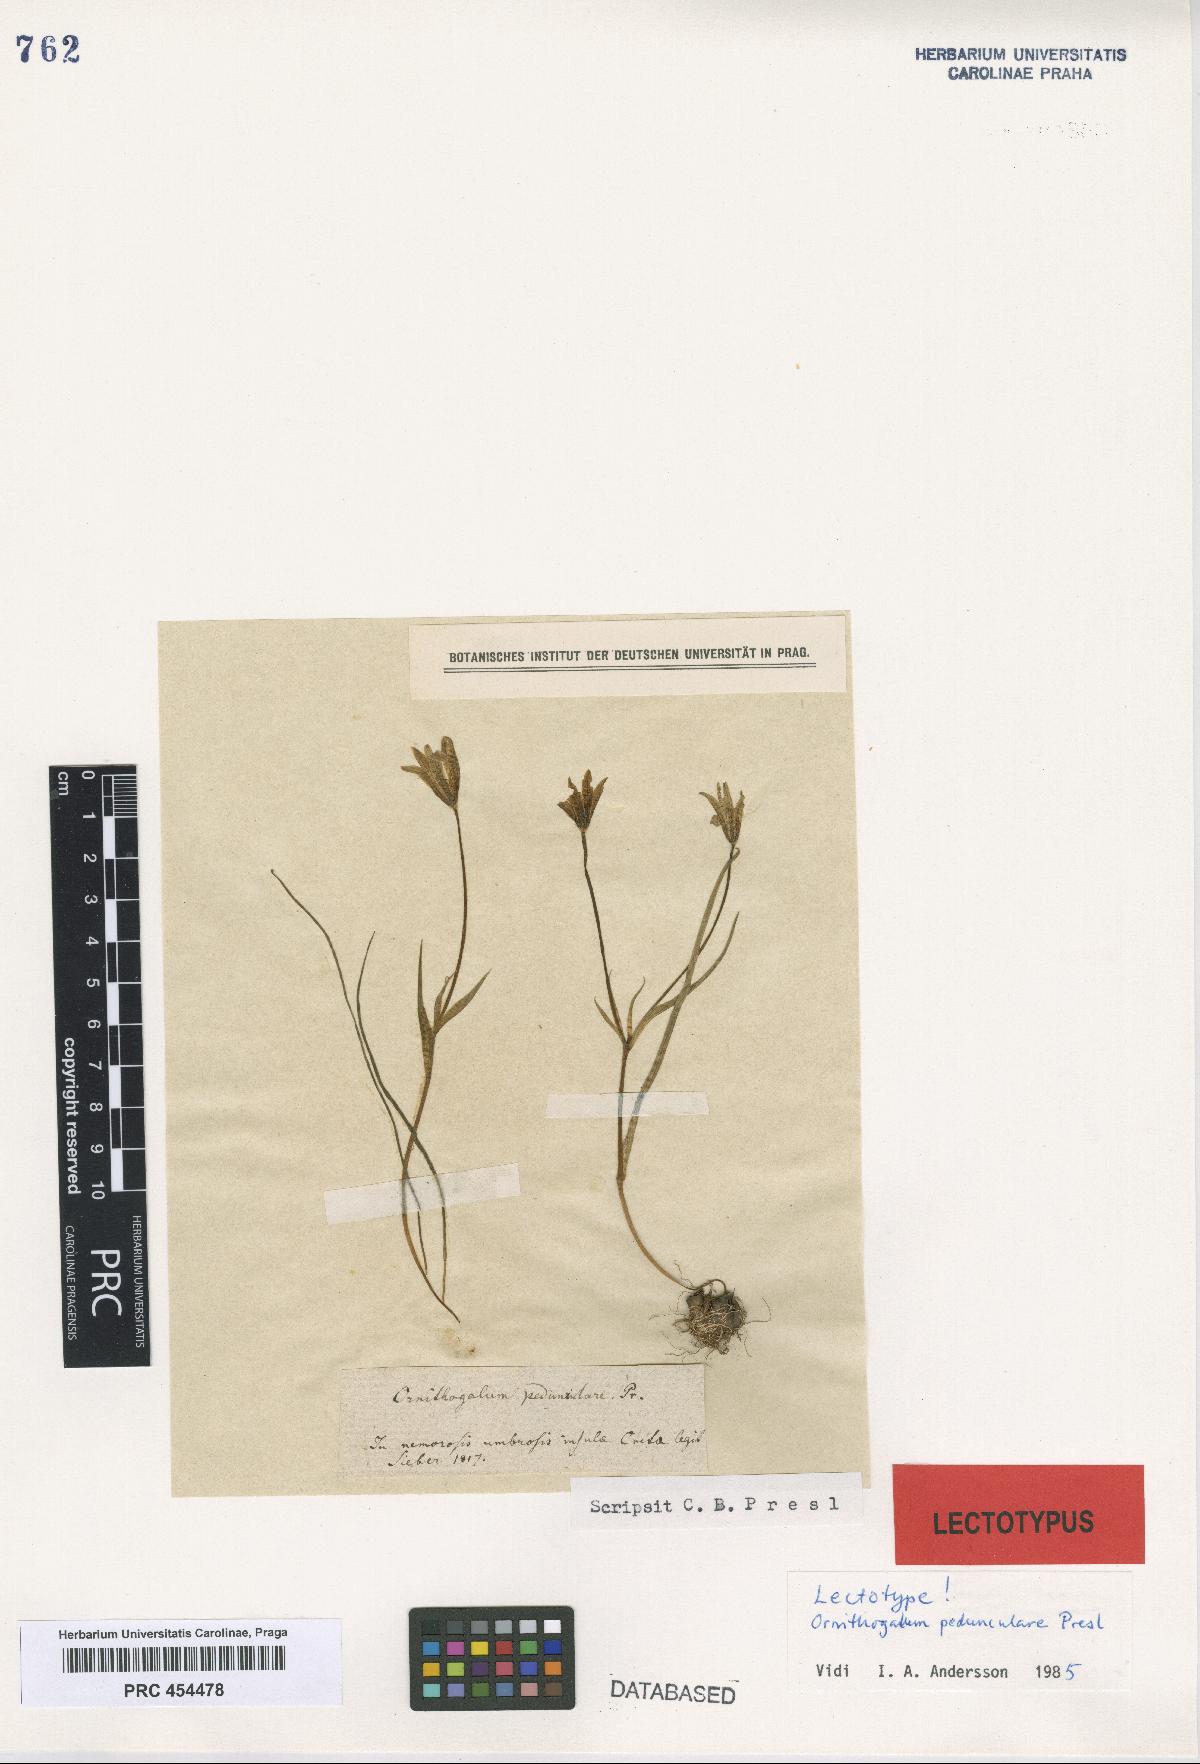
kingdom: Plantae
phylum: Tracheophyta
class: Liliopsida
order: Liliales
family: Liliaceae
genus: Gagea
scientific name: Gagea peduncularis
